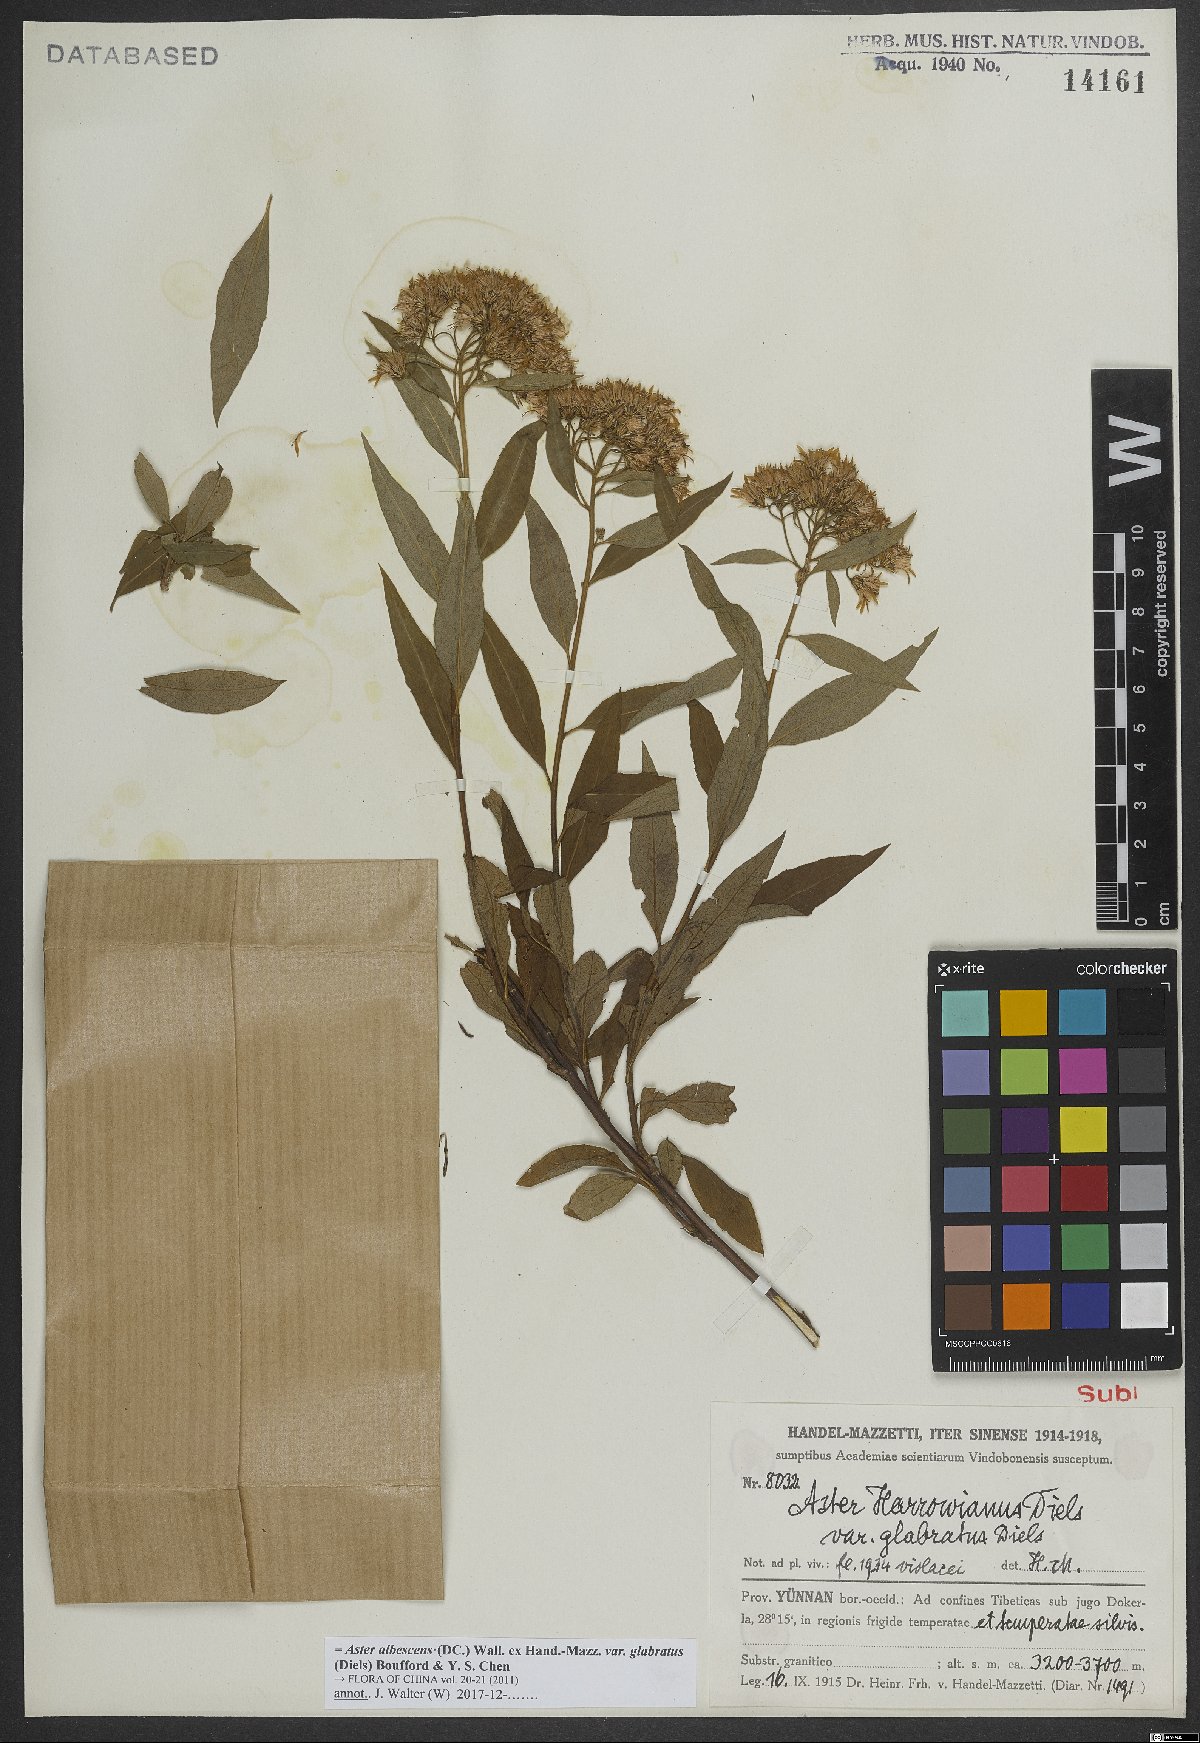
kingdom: Plantae
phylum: Tracheophyta
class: Magnoliopsida
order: Asterales
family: Asteraceae
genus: Sinosidus
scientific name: Sinosidus albescens
